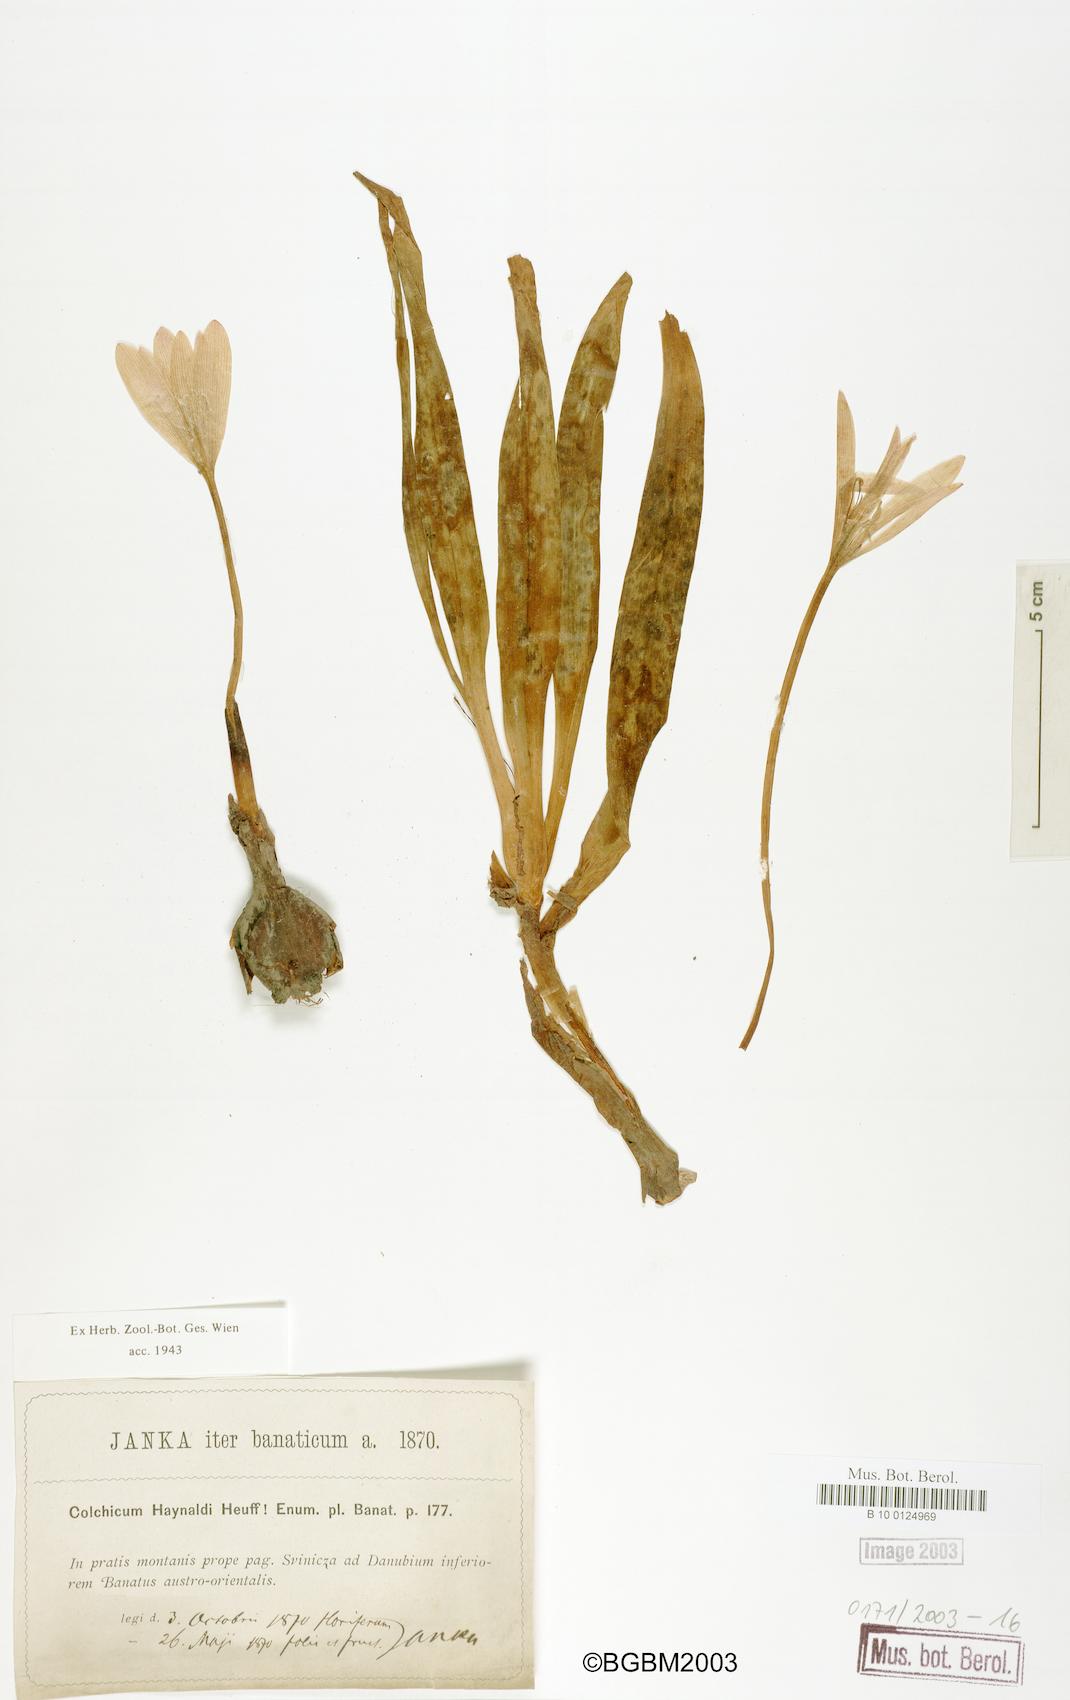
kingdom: Plantae
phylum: Tracheophyta
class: Liliopsida
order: Liliales
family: Colchicaceae
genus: Colchicum
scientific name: Colchicum haynaldii
